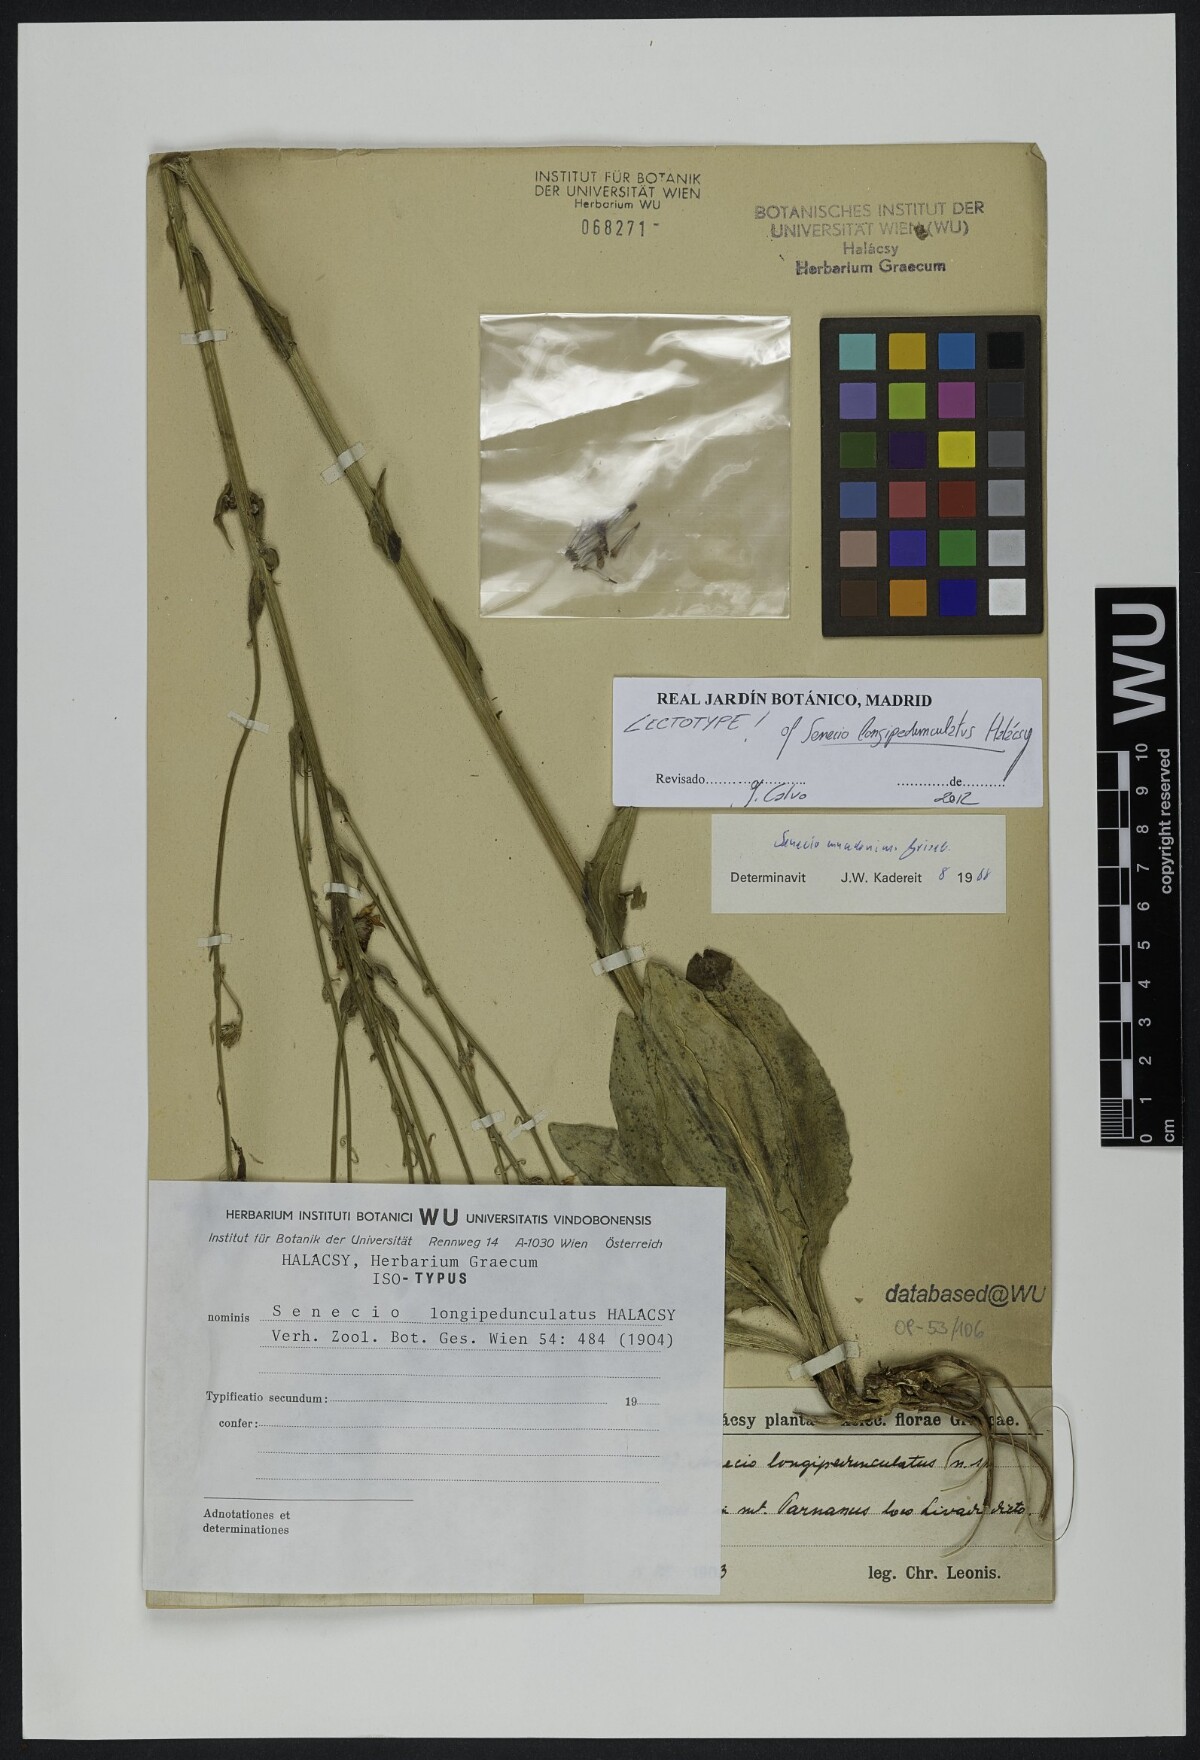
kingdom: Plantae
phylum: Tracheophyta
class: Magnoliopsida
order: Asterales
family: Asteraceae
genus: Senecio
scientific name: Senecio macedonicus
